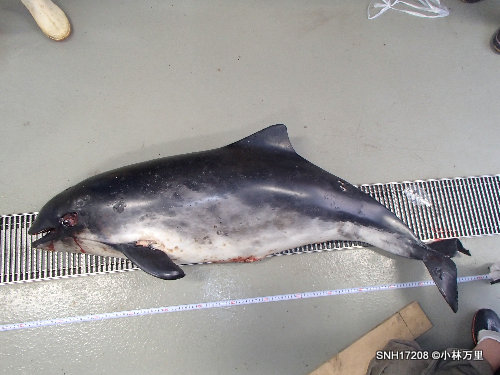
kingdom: Animalia
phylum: Chordata
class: Mammalia
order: Cetacea
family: Phocoenidae
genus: Phocoena
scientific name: Phocoena phocoena
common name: Harbour porpoise
